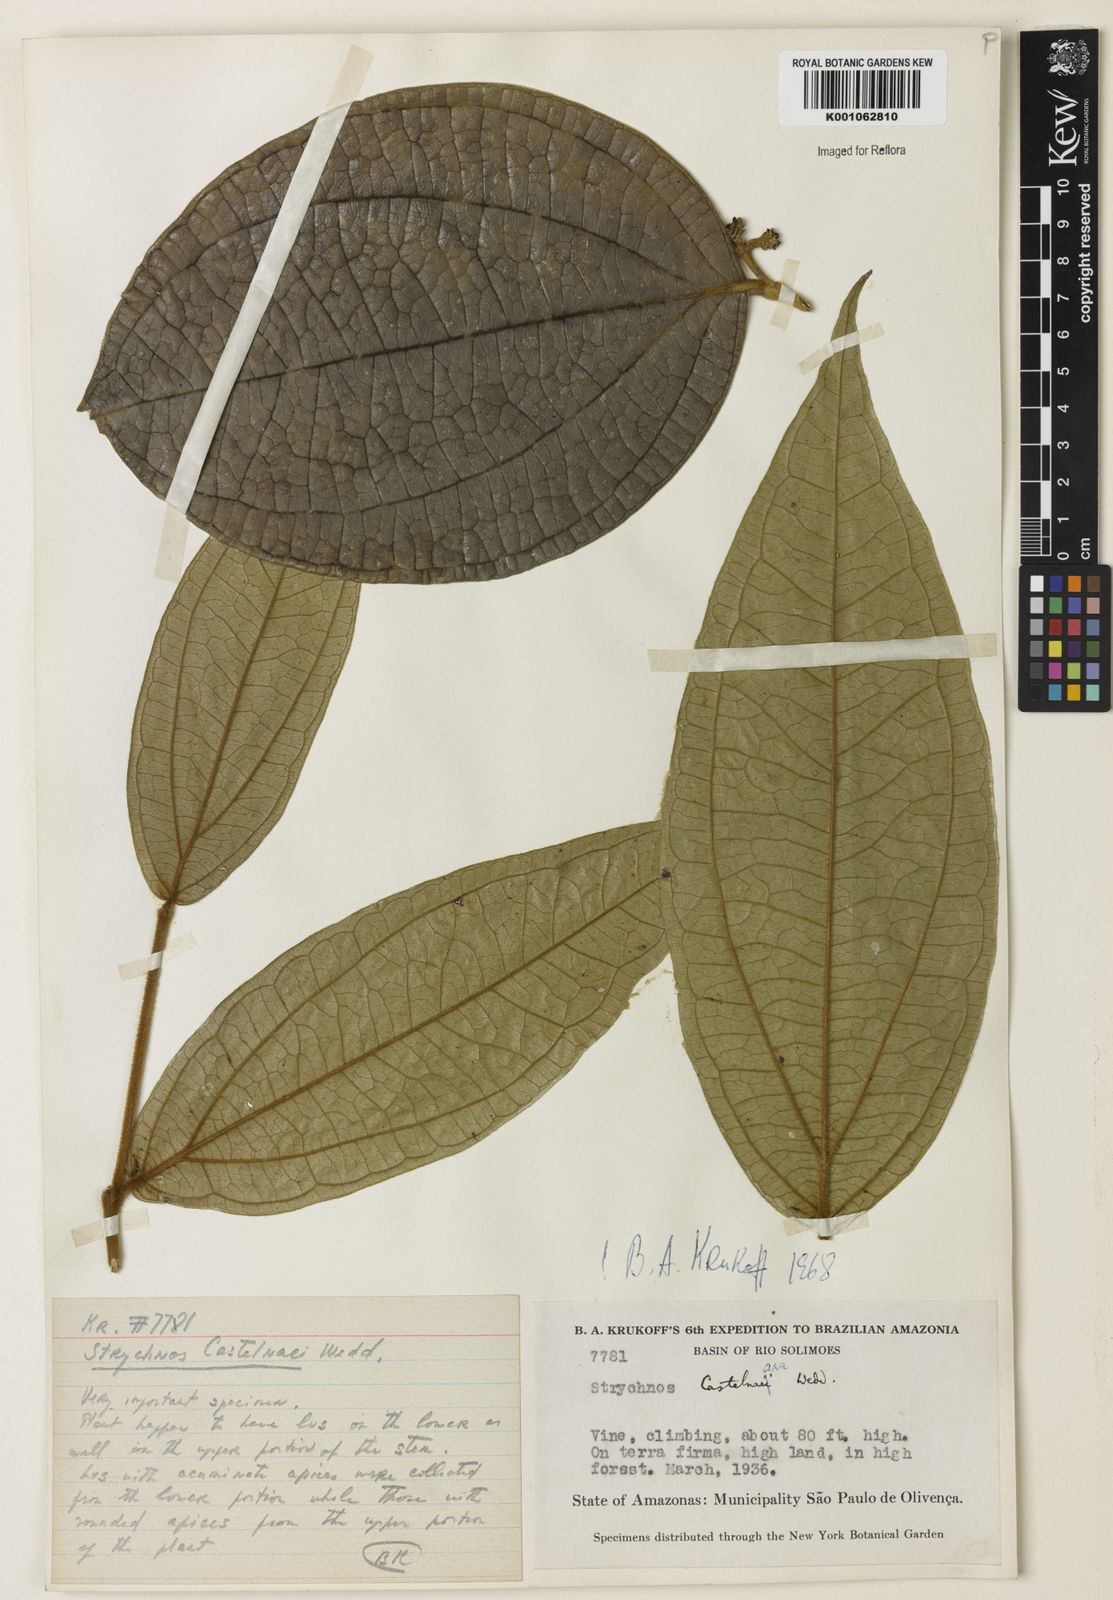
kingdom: Plantae
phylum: Tracheophyta
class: Magnoliopsida
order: Gentianales
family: Loganiaceae
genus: Strychnos
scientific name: Strychnos
